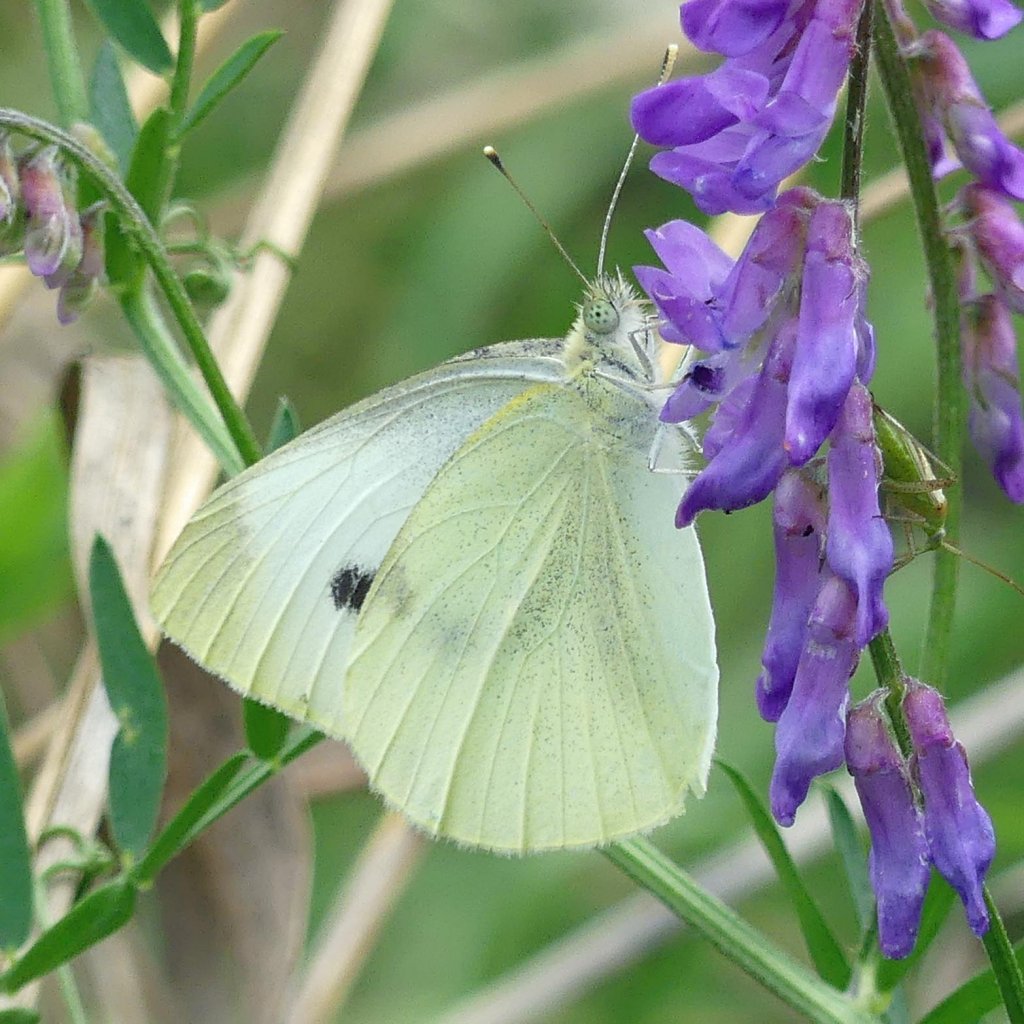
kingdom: Animalia
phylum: Arthropoda
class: Insecta
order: Lepidoptera
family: Pieridae
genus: Pieris
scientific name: Pieris rapae
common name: Cabbage White
